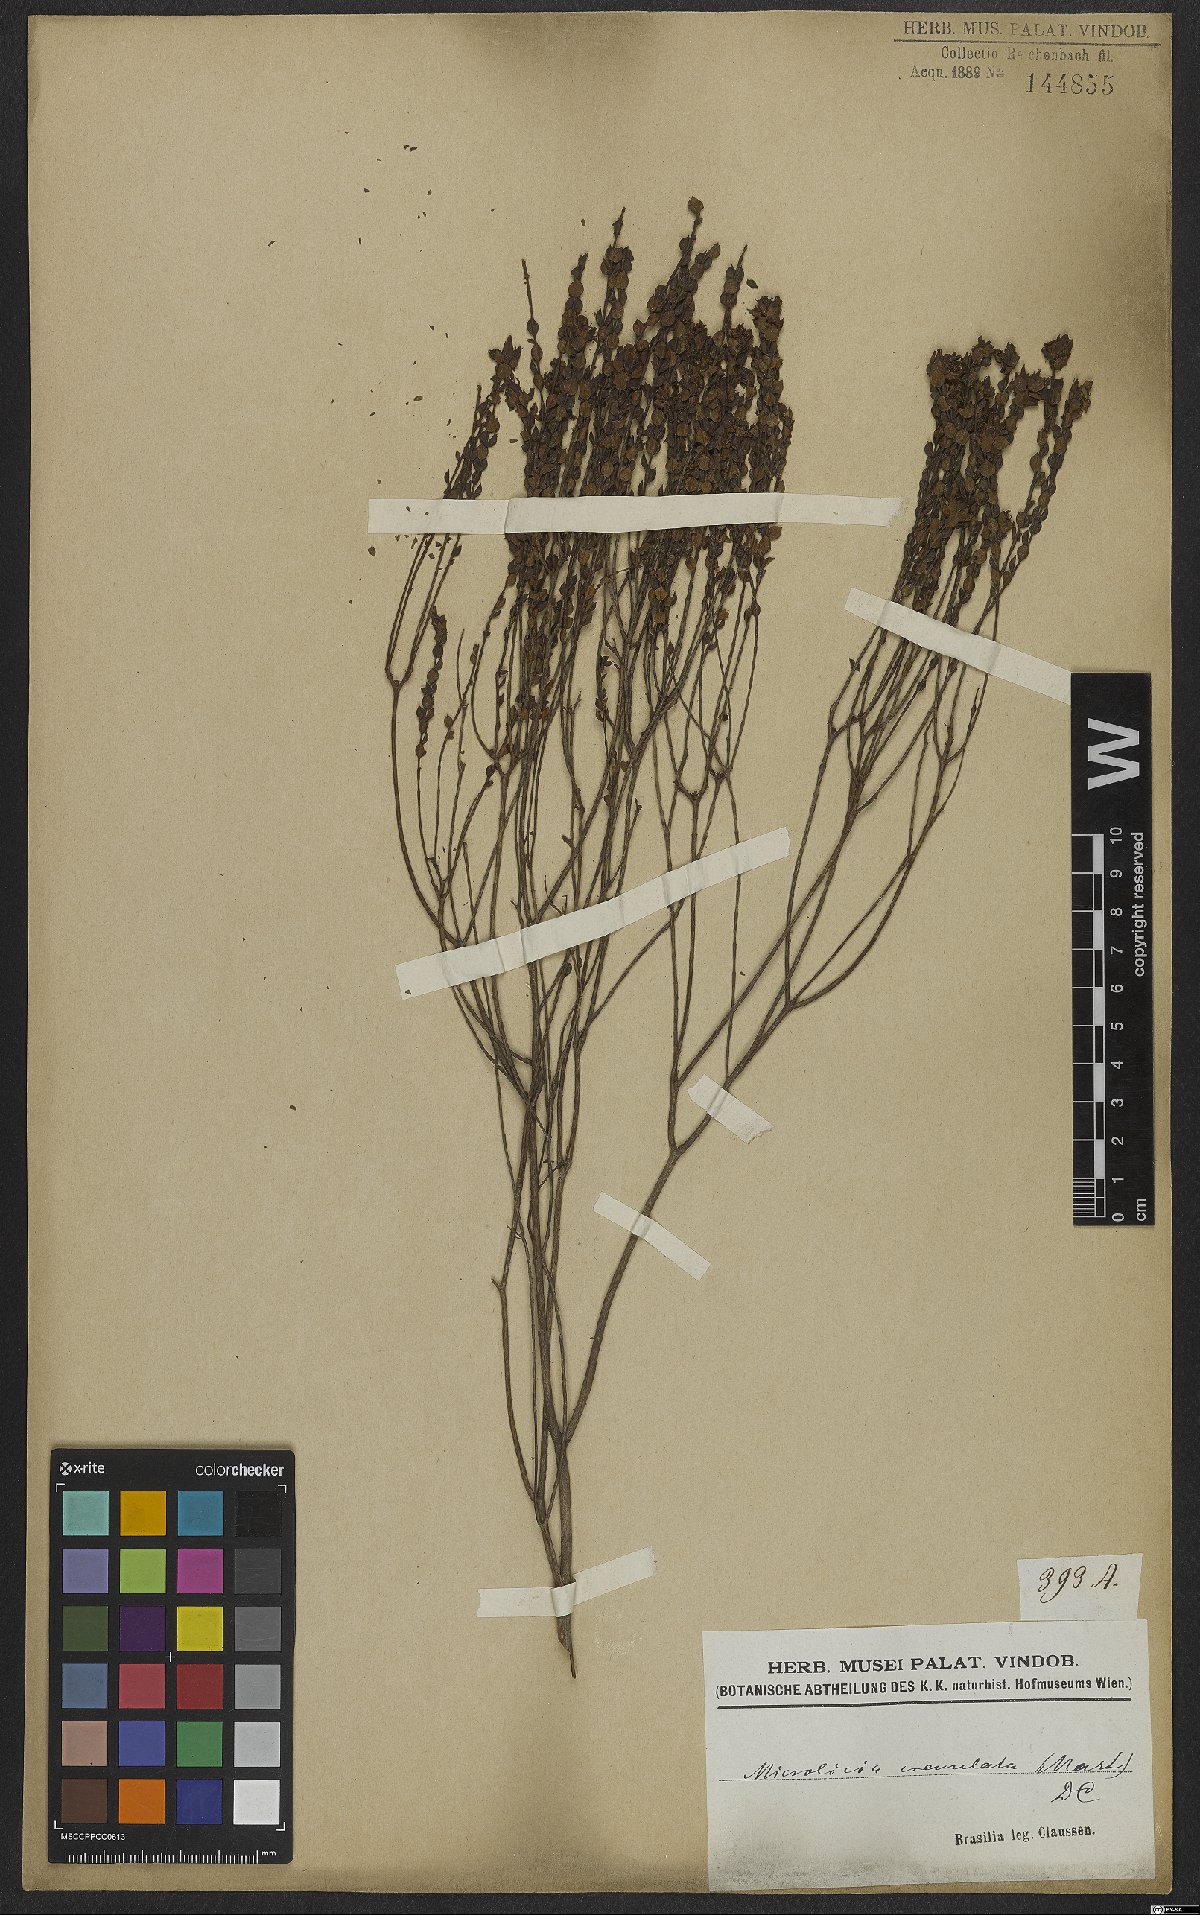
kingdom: Plantae
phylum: Tracheophyta
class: Magnoliopsida
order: Myrtales
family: Melastomataceae
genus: Microlicia
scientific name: Microlicia crenulata
